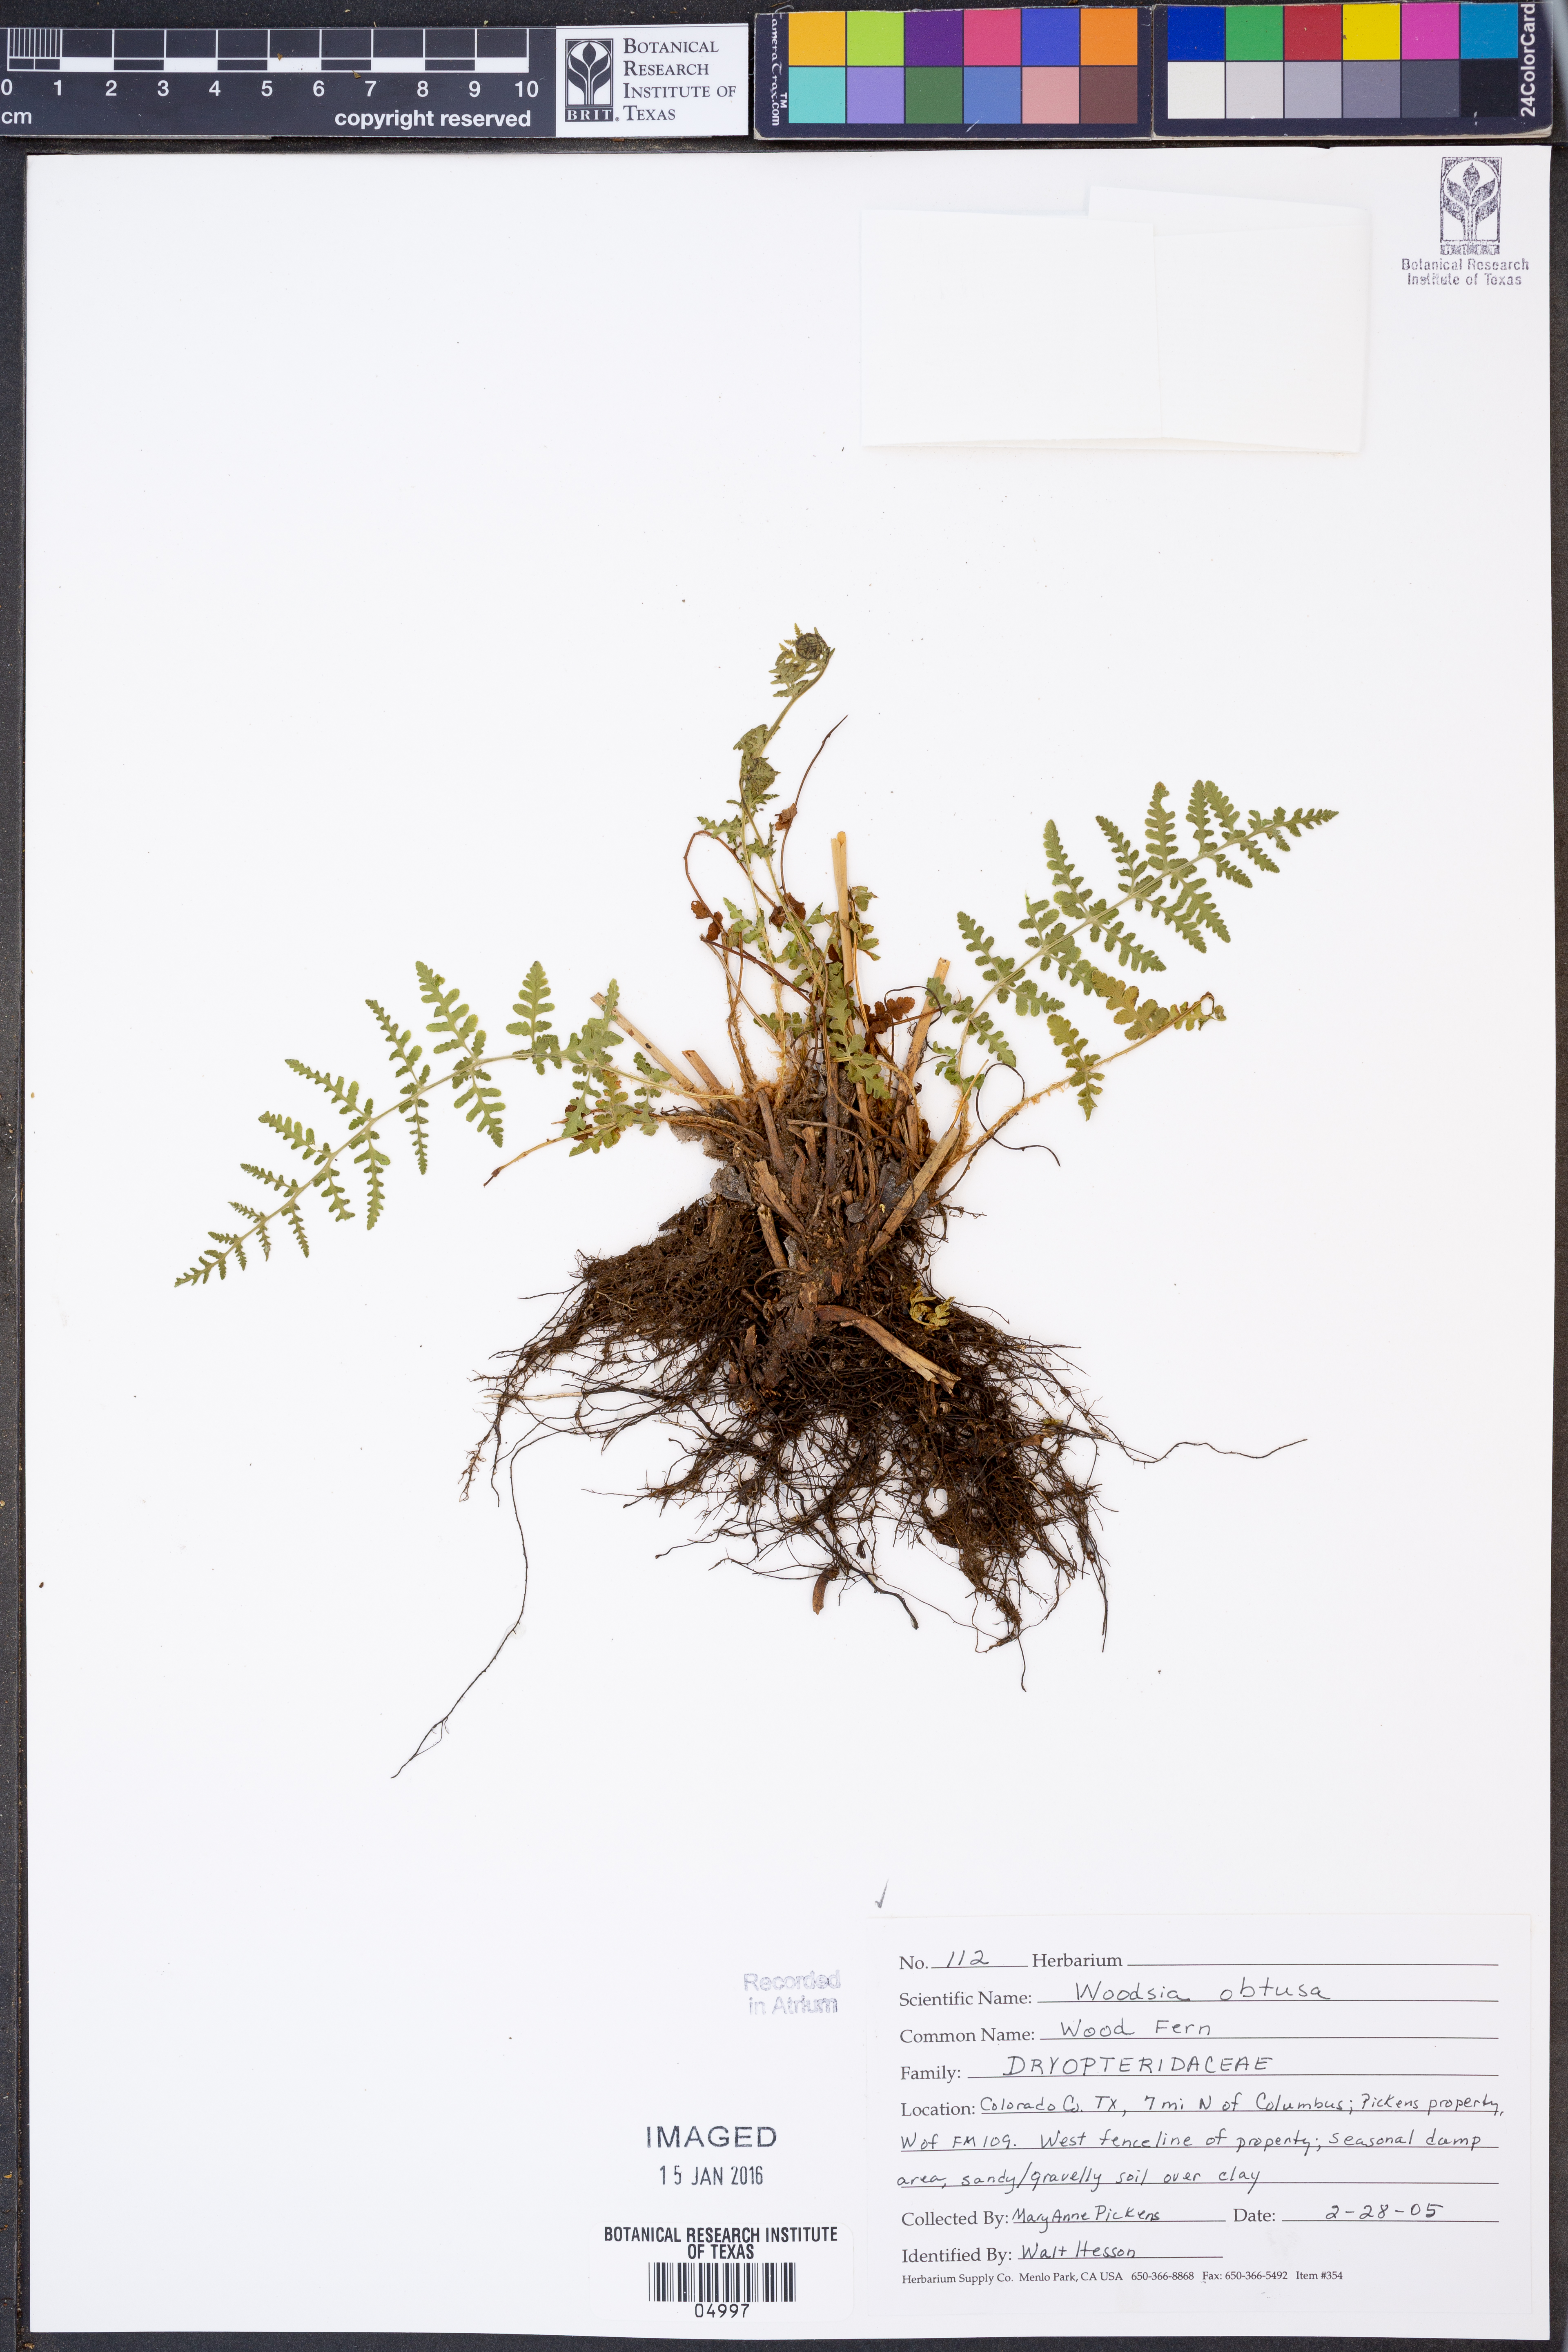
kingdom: Plantae
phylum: Tracheophyta
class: Polypodiopsida
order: Polypodiales
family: Woodsiaceae
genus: Physematium
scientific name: Physematium obtusum
